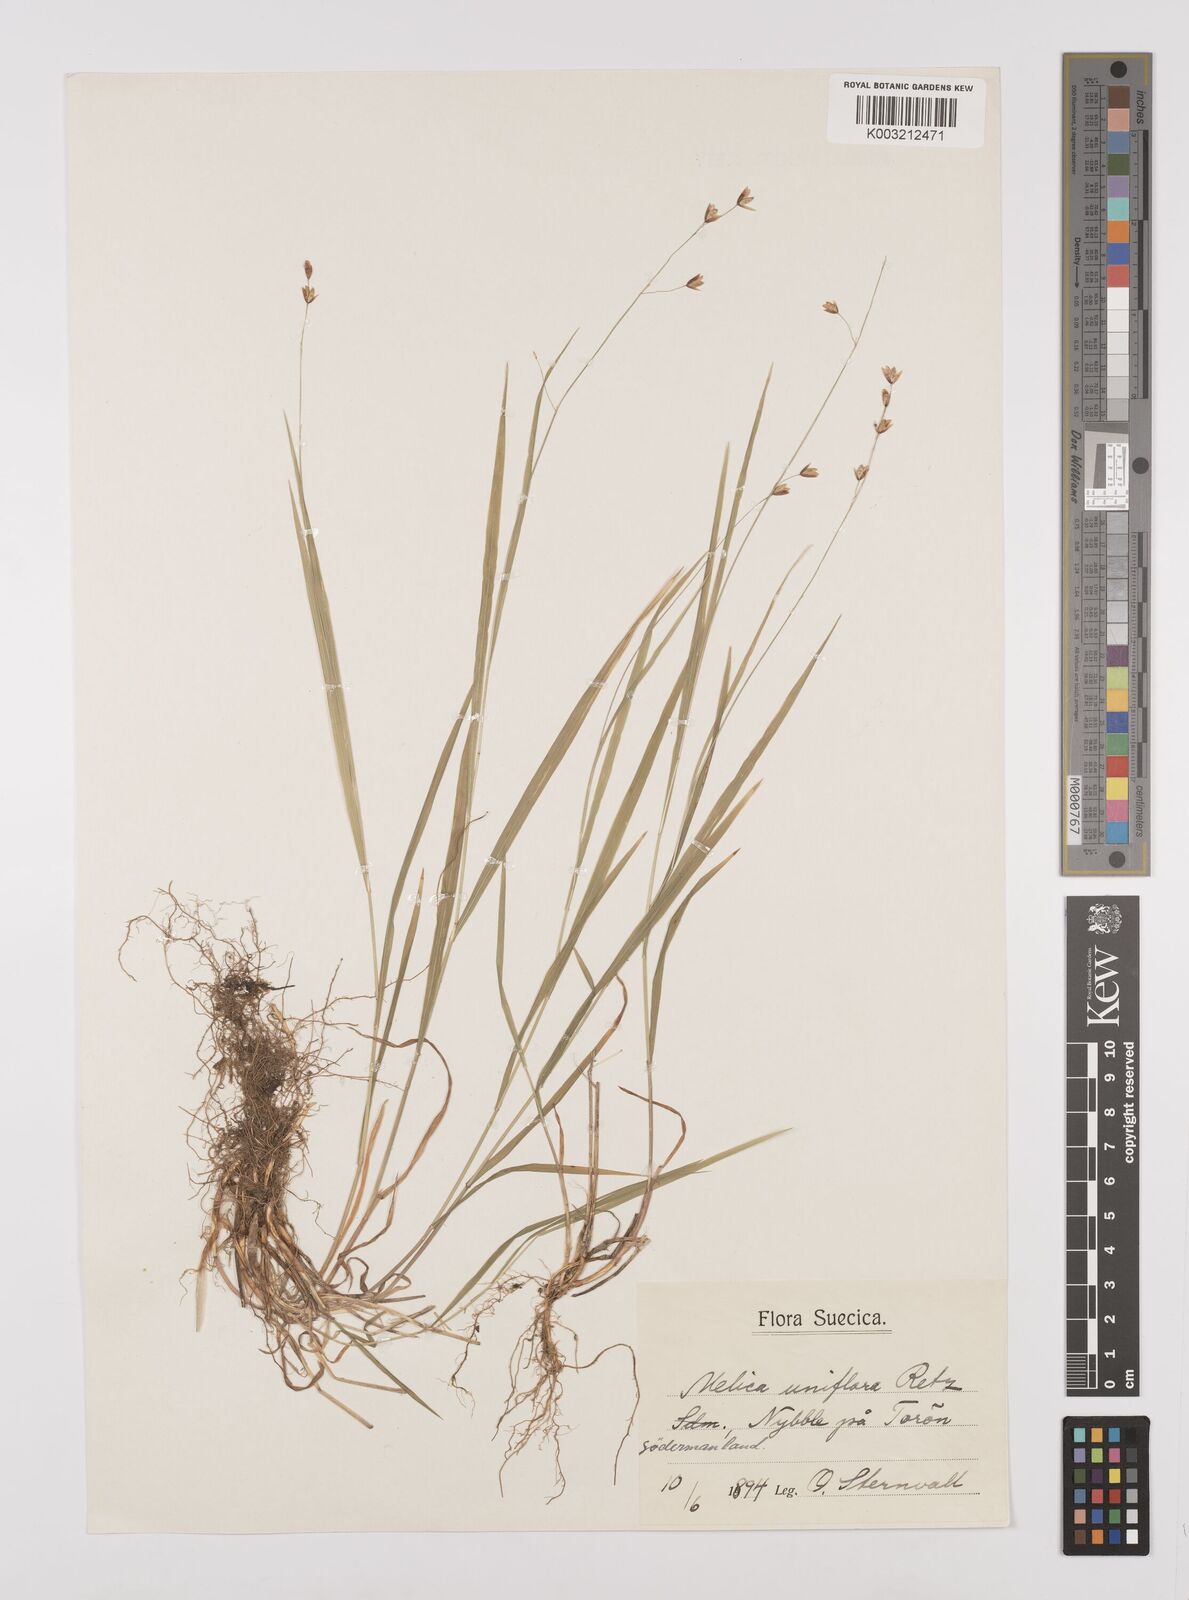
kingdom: Plantae
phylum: Tracheophyta
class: Liliopsida
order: Poales
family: Poaceae
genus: Melica
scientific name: Melica uniflora
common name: Wood melick
